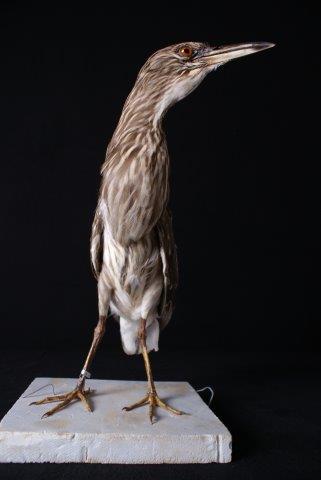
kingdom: Animalia
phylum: Chordata
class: Aves
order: Pelecaniformes
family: Ardeidae
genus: Nycticorax
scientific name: Nycticorax nycticorax
